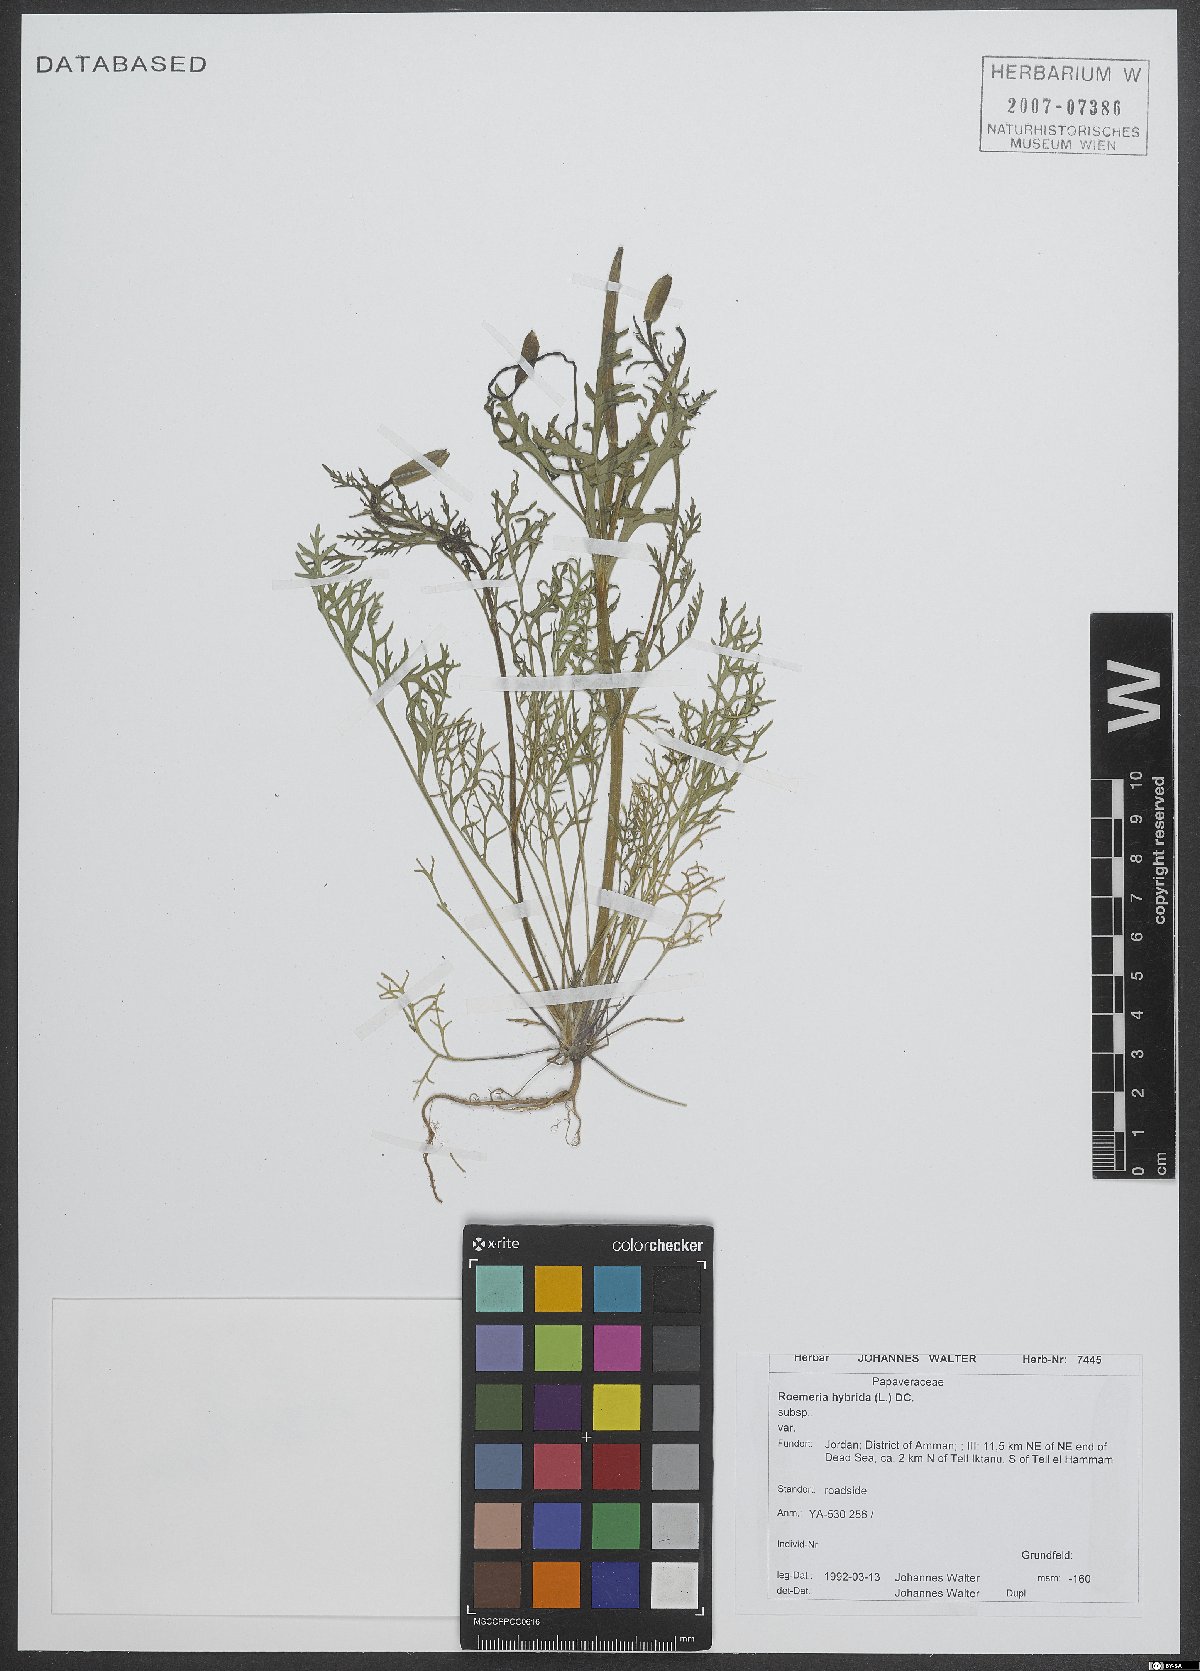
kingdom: Plantae
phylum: Tracheophyta
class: Magnoliopsida
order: Ranunculales
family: Papaveraceae
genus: Roemeria
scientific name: Roemeria hybrida
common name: Violet horned-poppy
